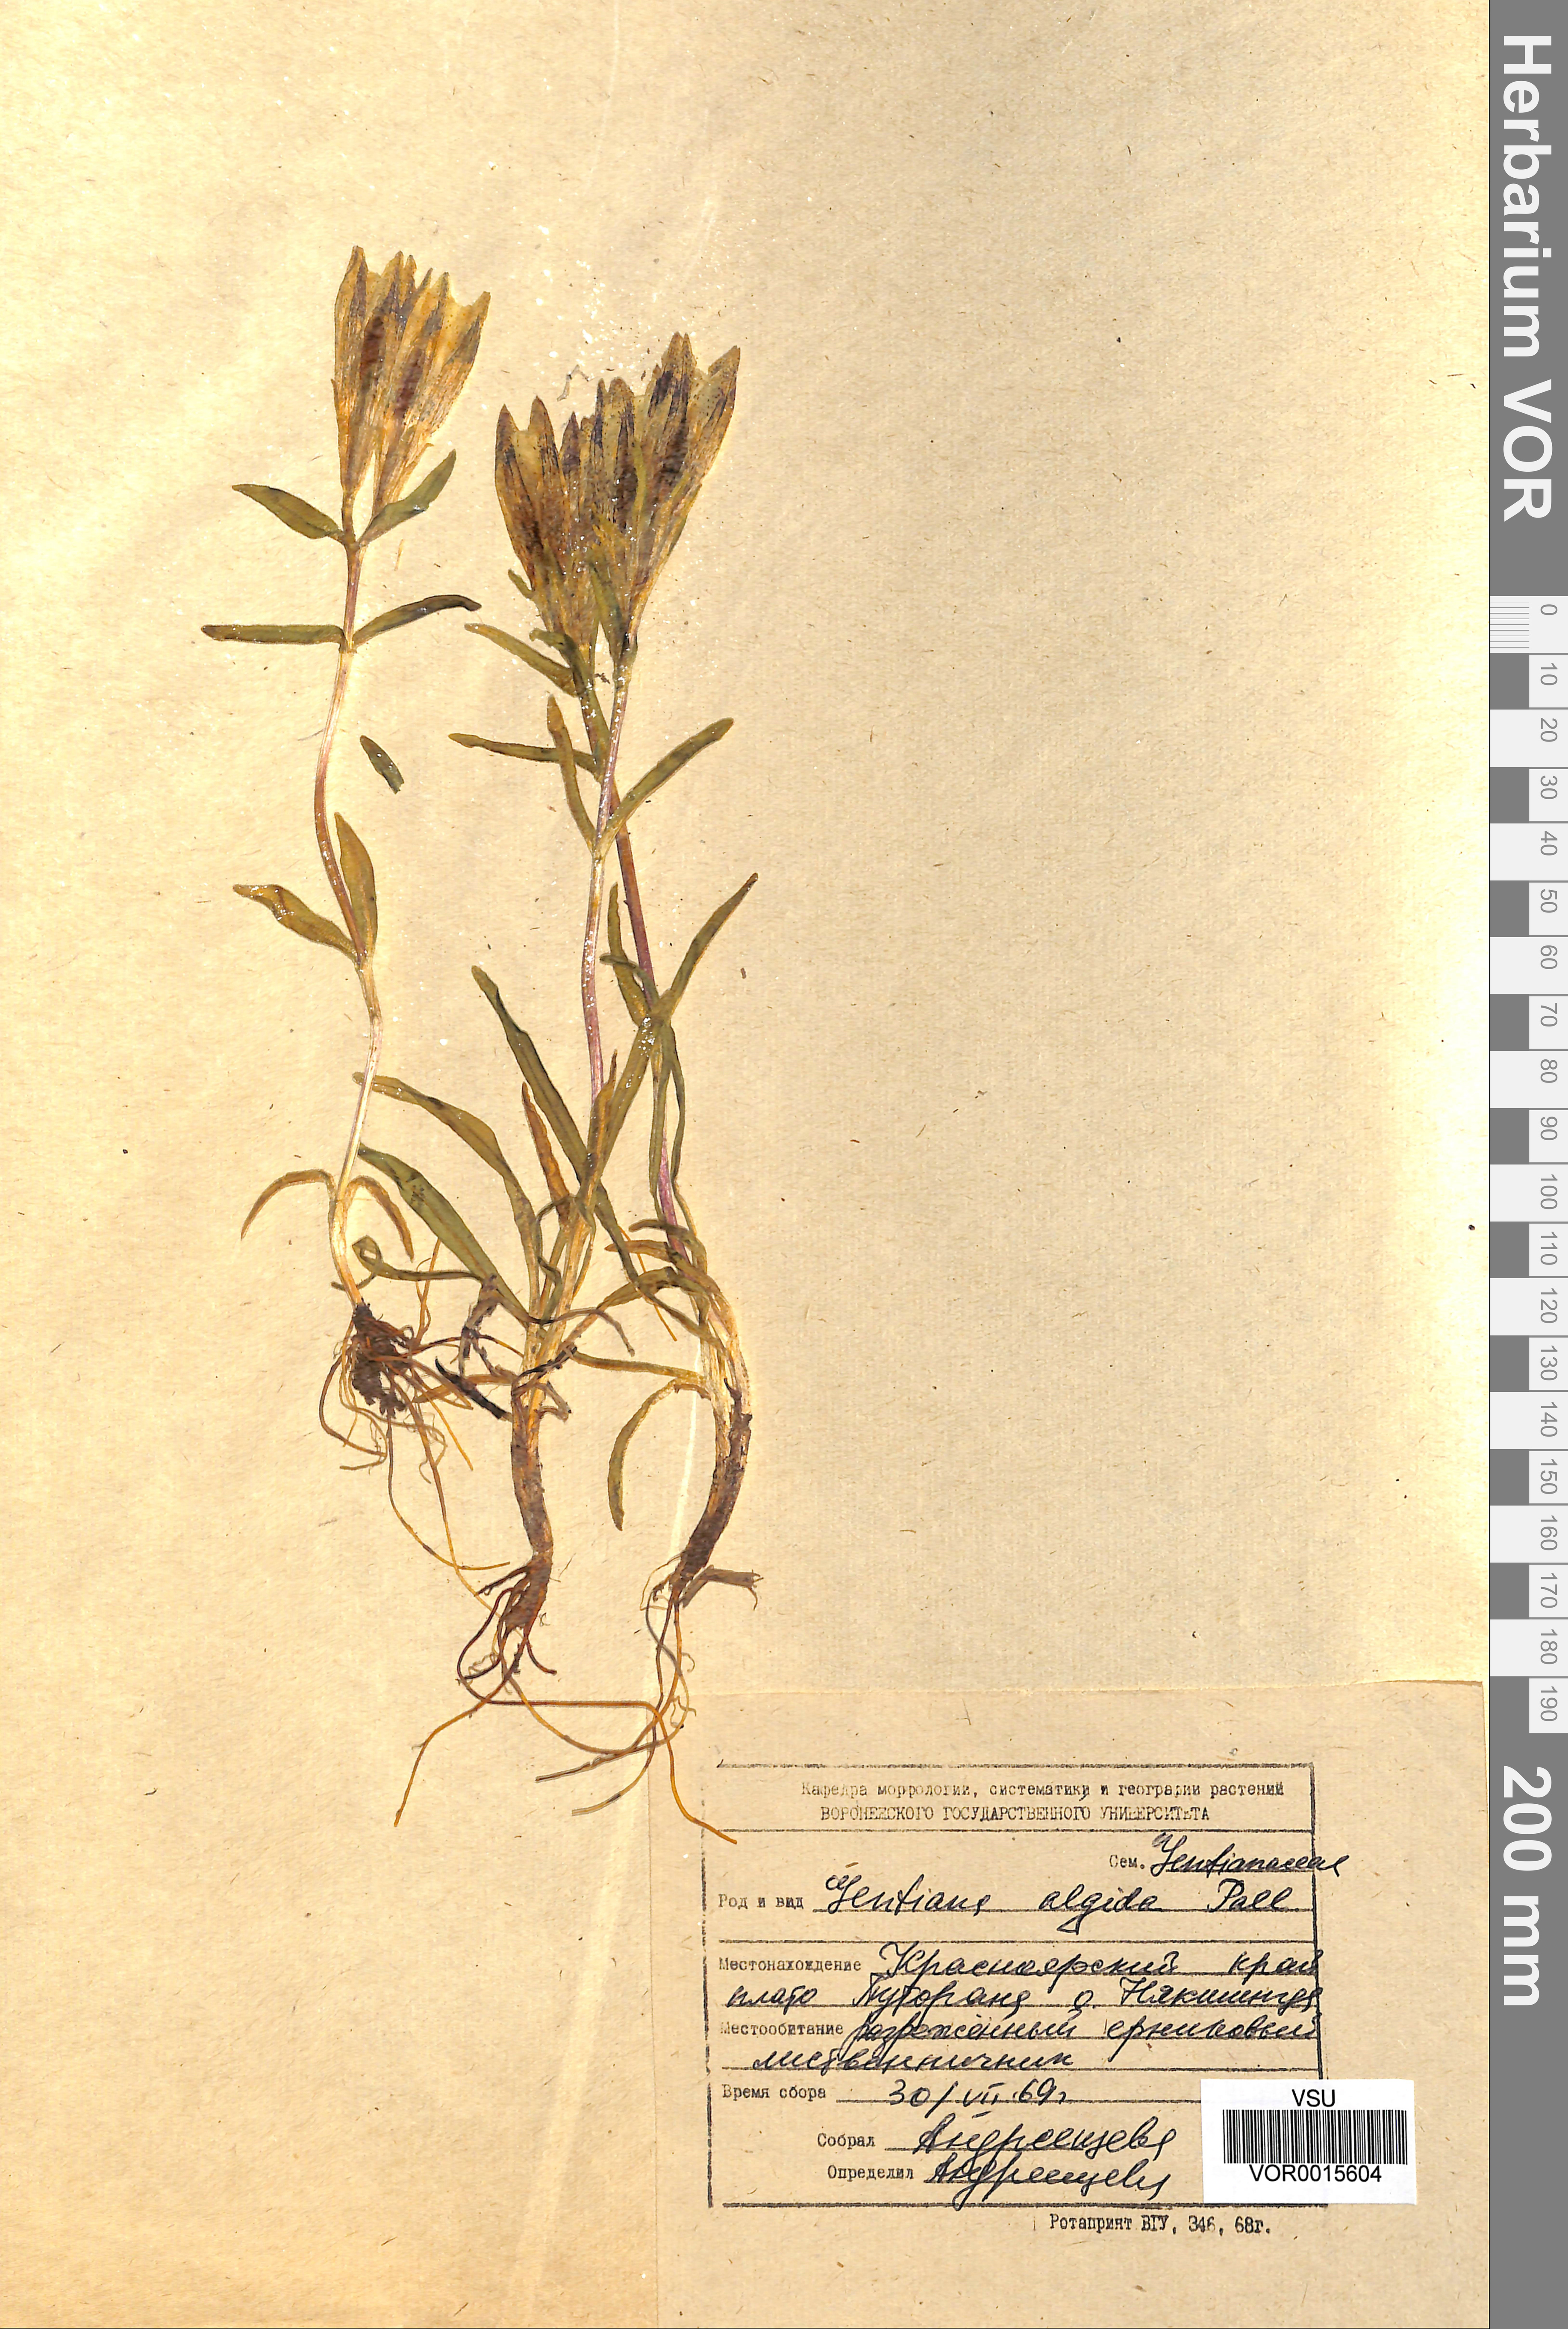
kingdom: Plantae
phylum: Tracheophyta
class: Magnoliopsida
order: Gentianales
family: Gentianaceae
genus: Gentiana
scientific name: Gentiana algida
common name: Arctic gentian
